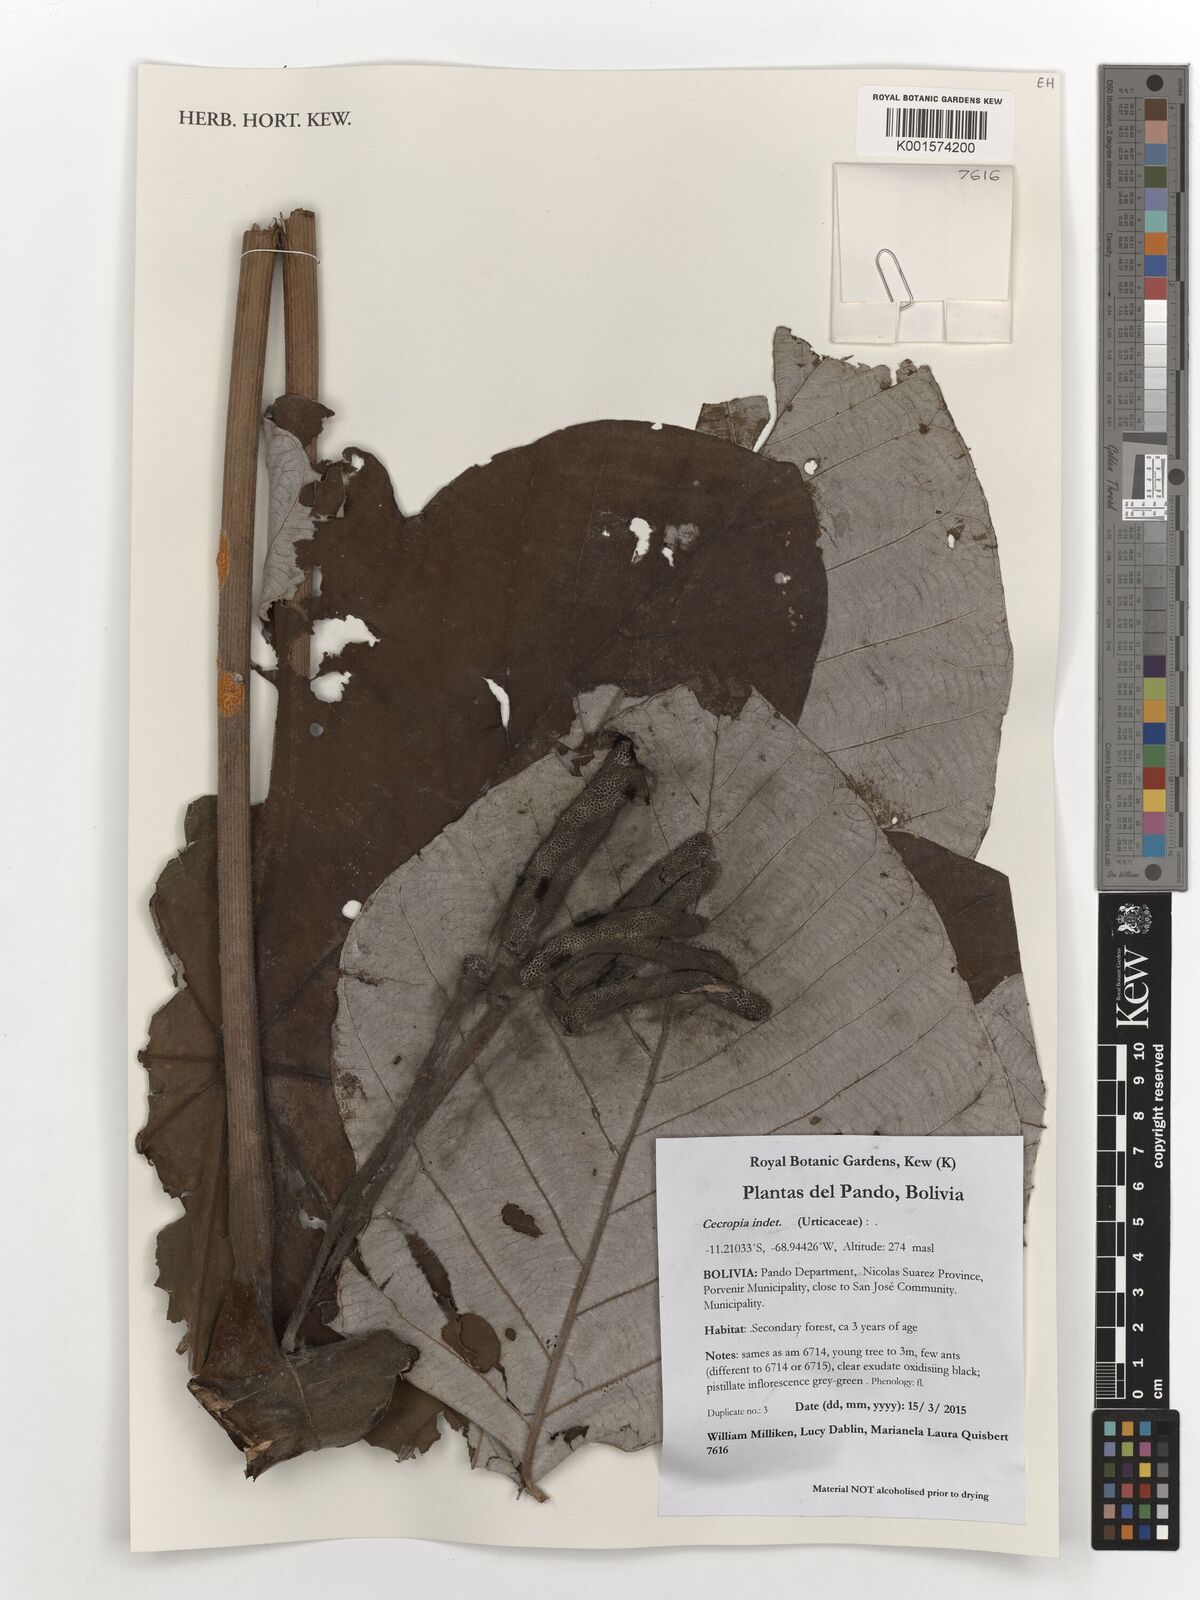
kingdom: Plantae
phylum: Tracheophyta
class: Magnoliopsida
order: Rosales
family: Urticaceae
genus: Cecropia
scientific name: Cecropia
